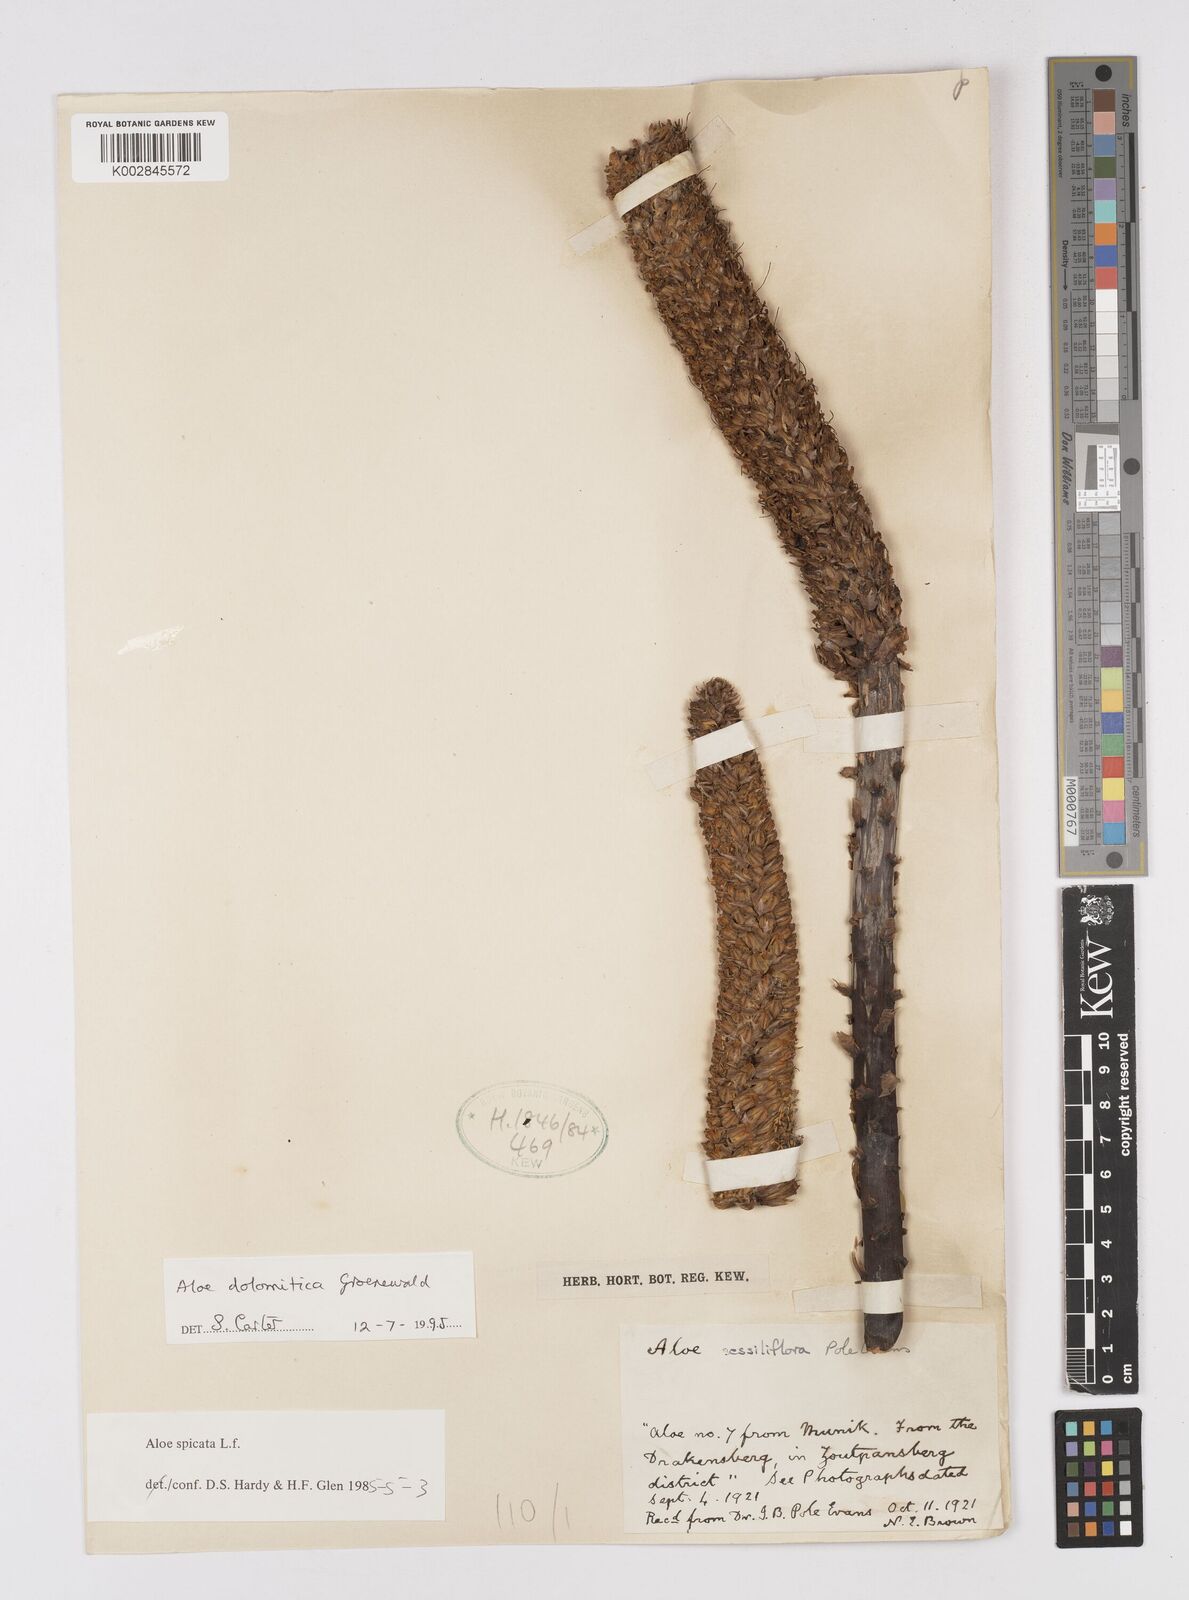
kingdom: Plantae
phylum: Tracheophyta
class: Liliopsida
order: Asparagales
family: Asphodelaceae
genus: Aloe
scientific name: Aloe vryheidensis
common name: Vryheid aloe
